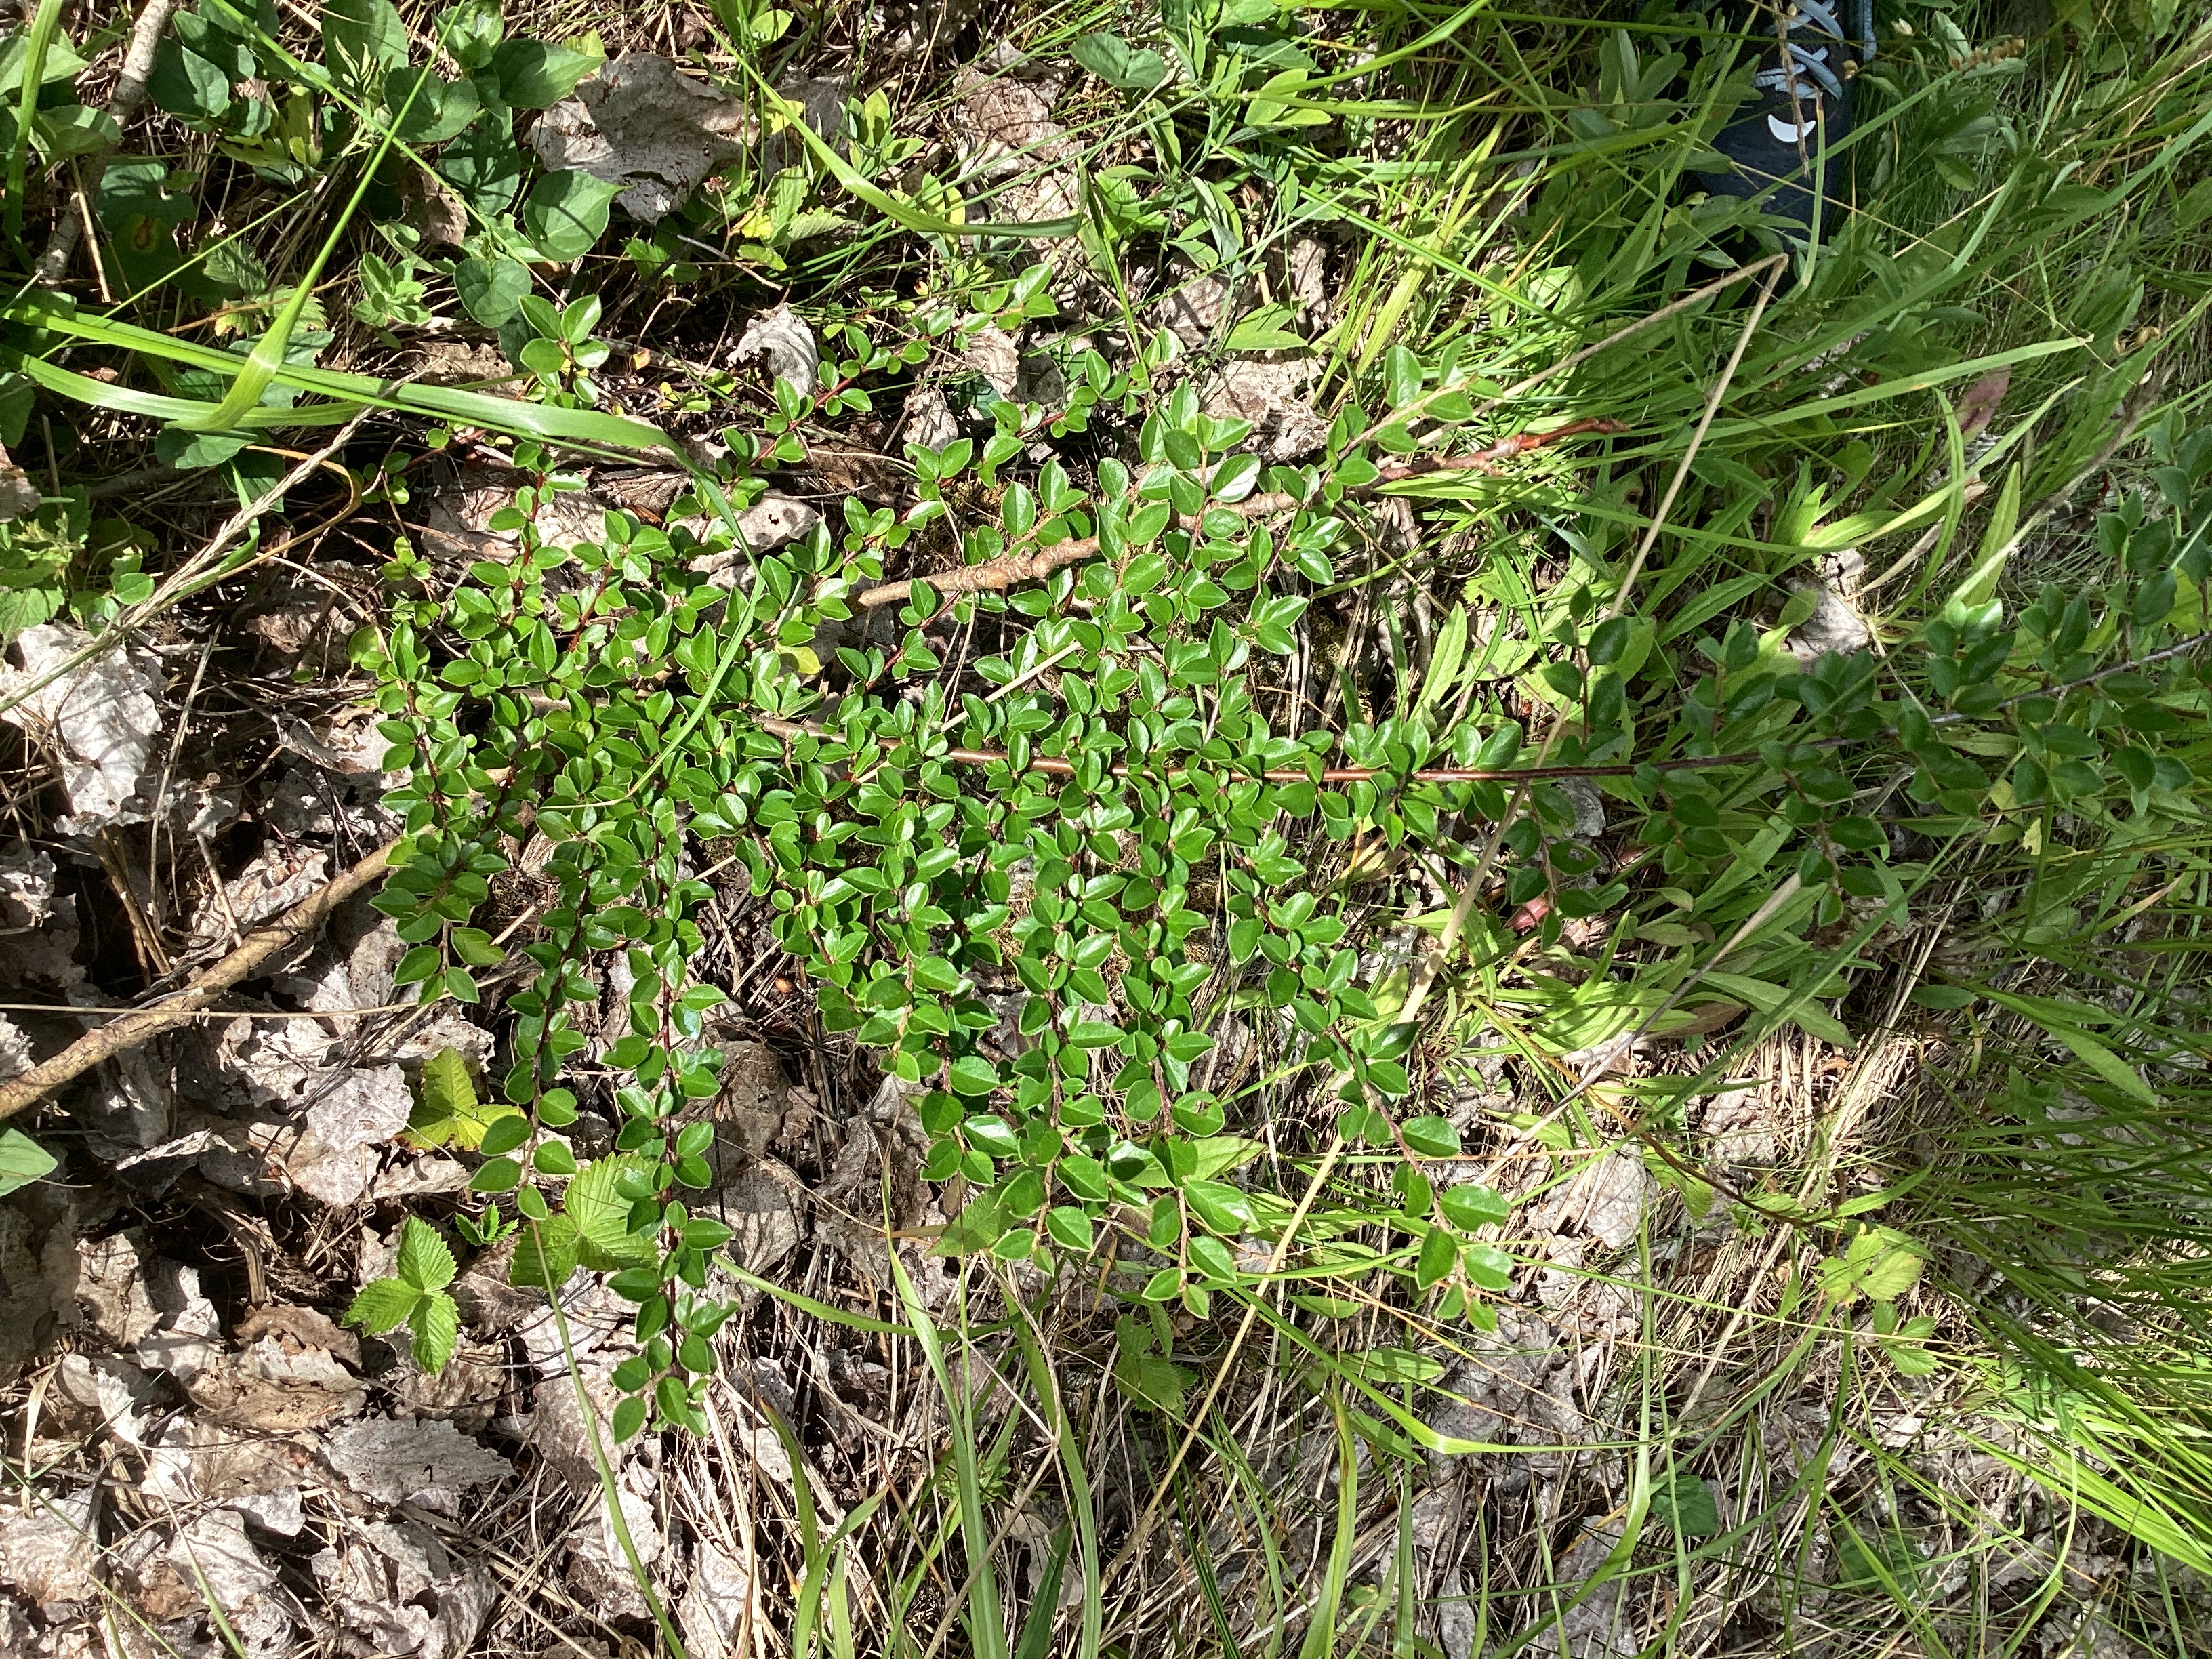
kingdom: Plantae
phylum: Tracheophyta
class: Magnoliopsida
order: Rosales
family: Rosaceae
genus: Cotoneaster
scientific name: Cotoneaster divaricatus
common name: sprikemispel
